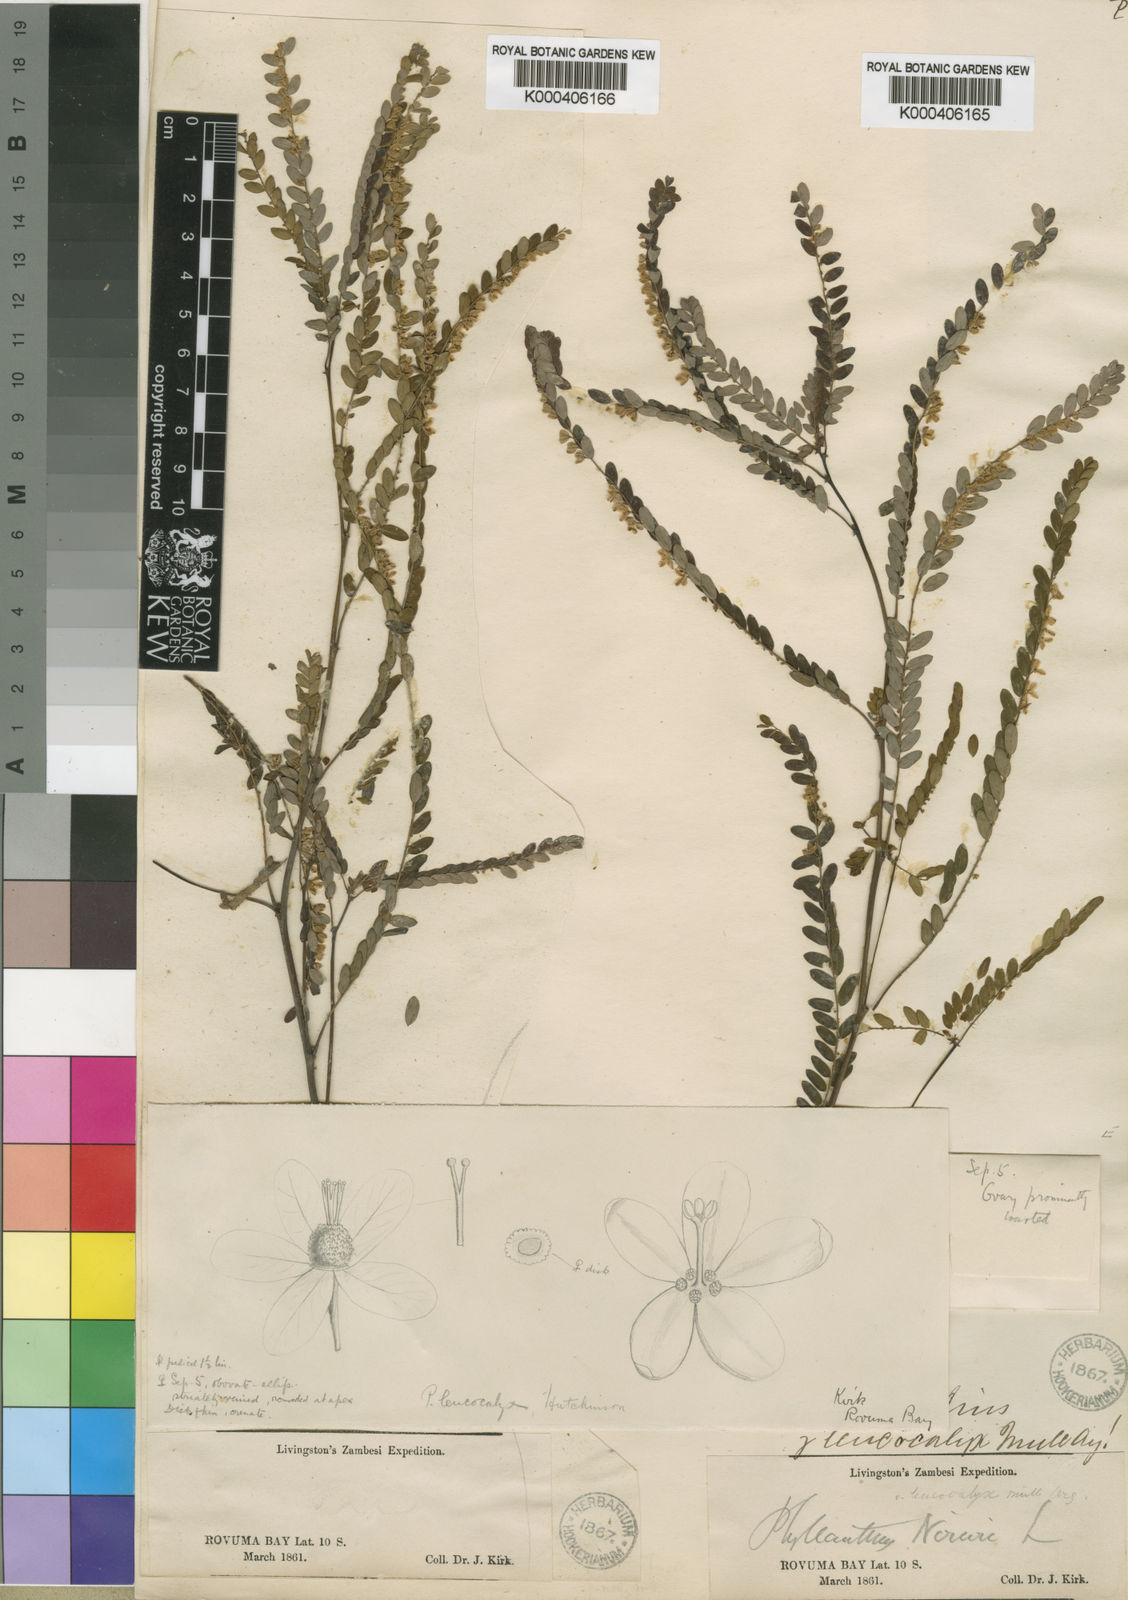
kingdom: Plantae
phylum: Tracheophyta
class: Magnoliopsida
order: Malpighiales
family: Phyllanthaceae
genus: Phyllanthus
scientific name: Phyllanthus leucocalyx
